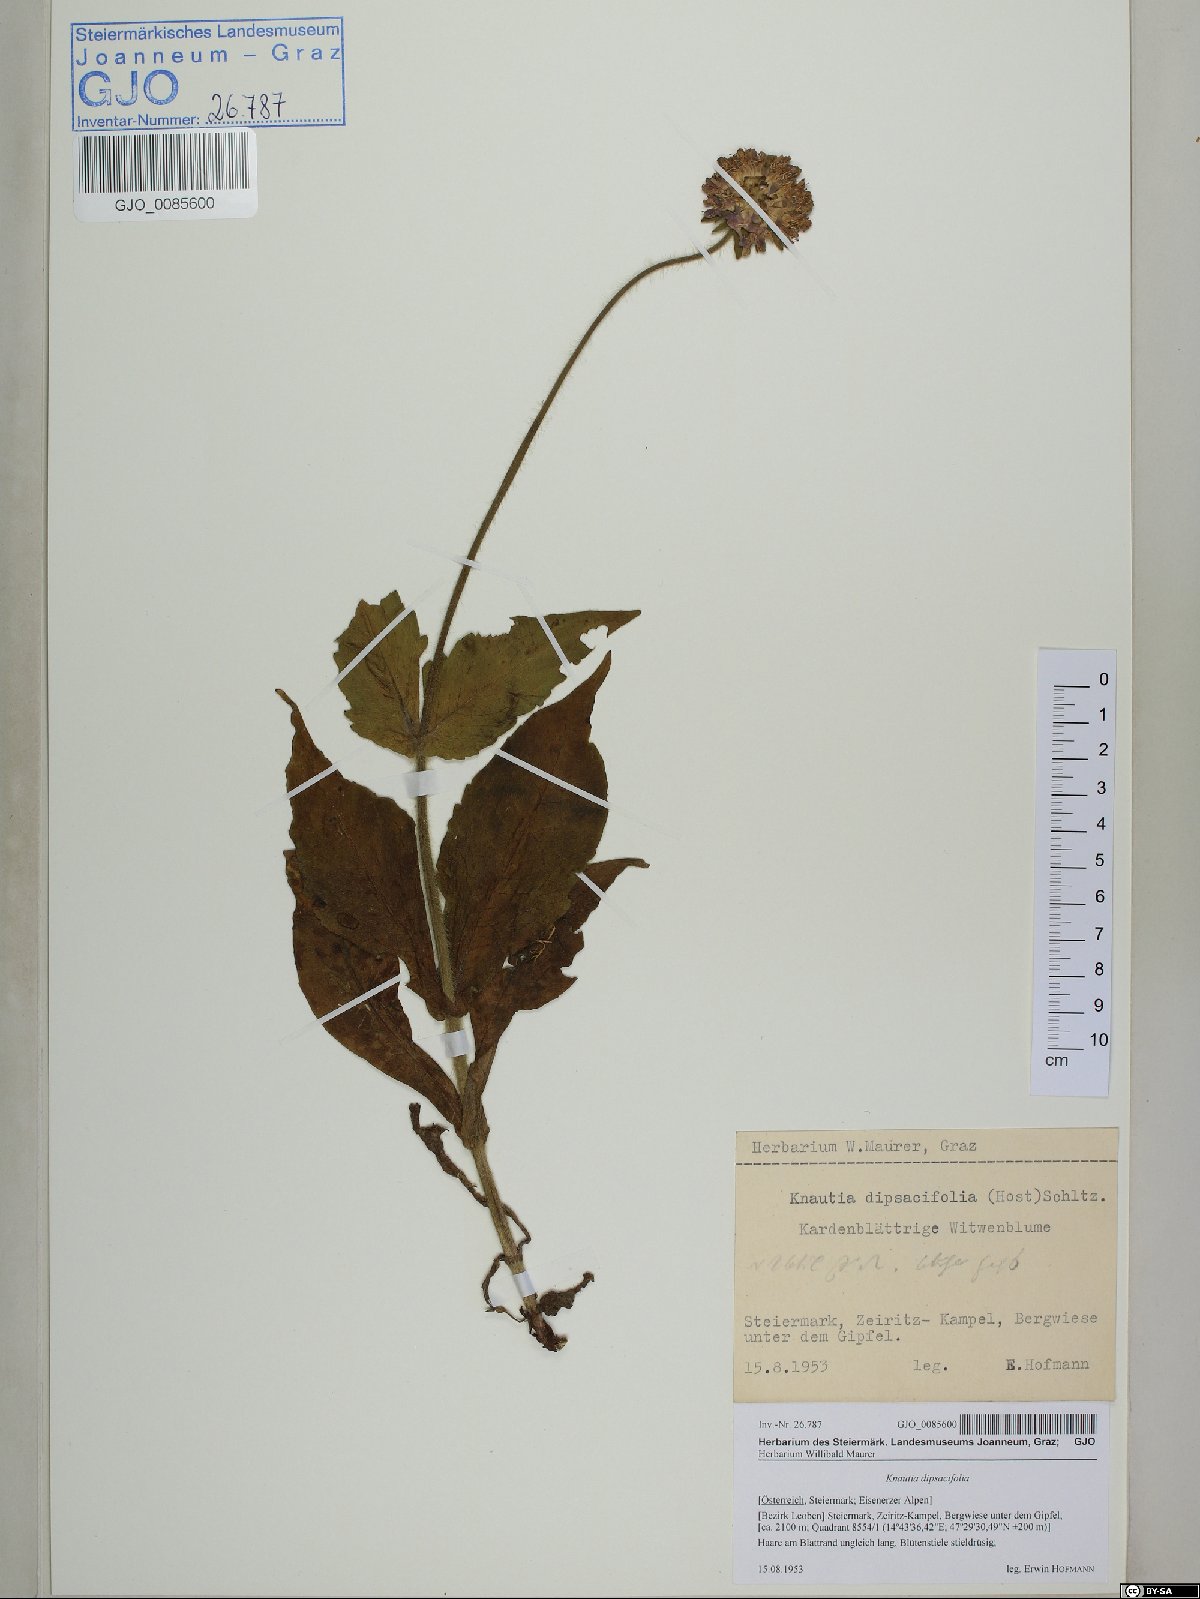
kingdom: Plantae
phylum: Tracheophyta
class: Magnoliopsida
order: Dipsacales
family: Caprifoliaceae
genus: Knautia
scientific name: Knautia dipsacifolia
